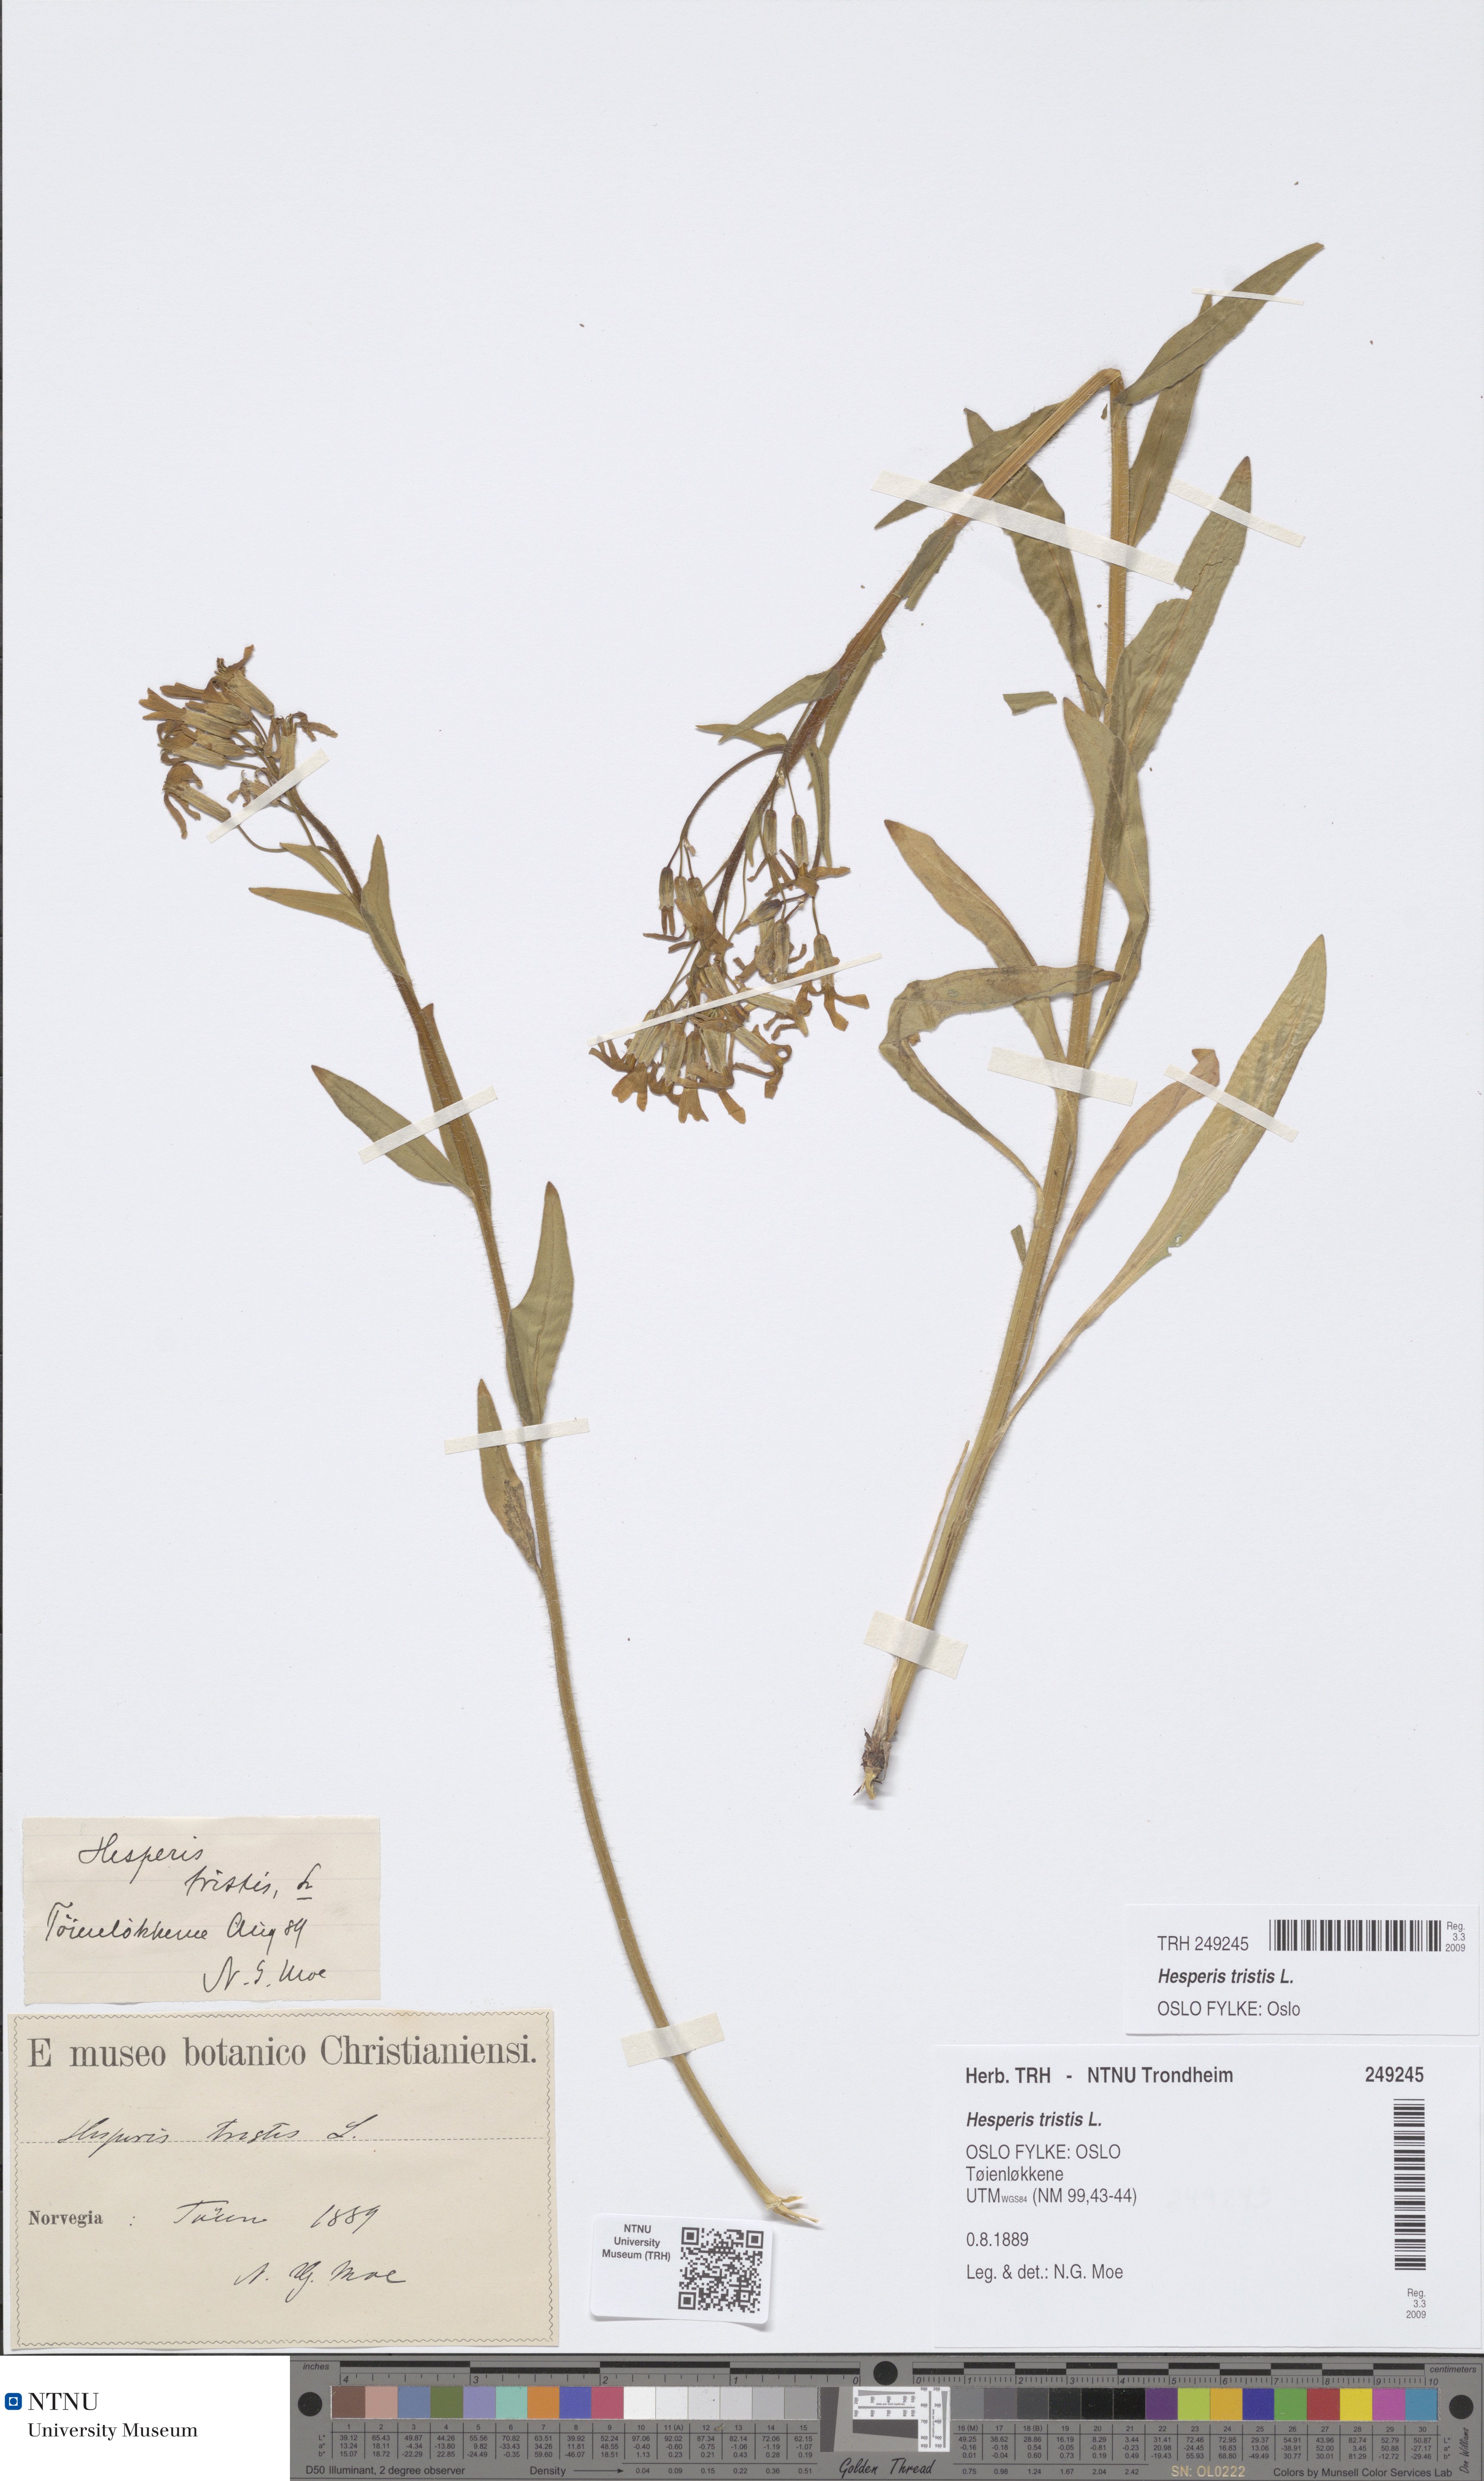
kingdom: Plantae
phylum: Tracheophyta
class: Magnoliopsida
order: Brassicales
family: Brassicaceae
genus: Hesperis
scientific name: Hesperis tristis
